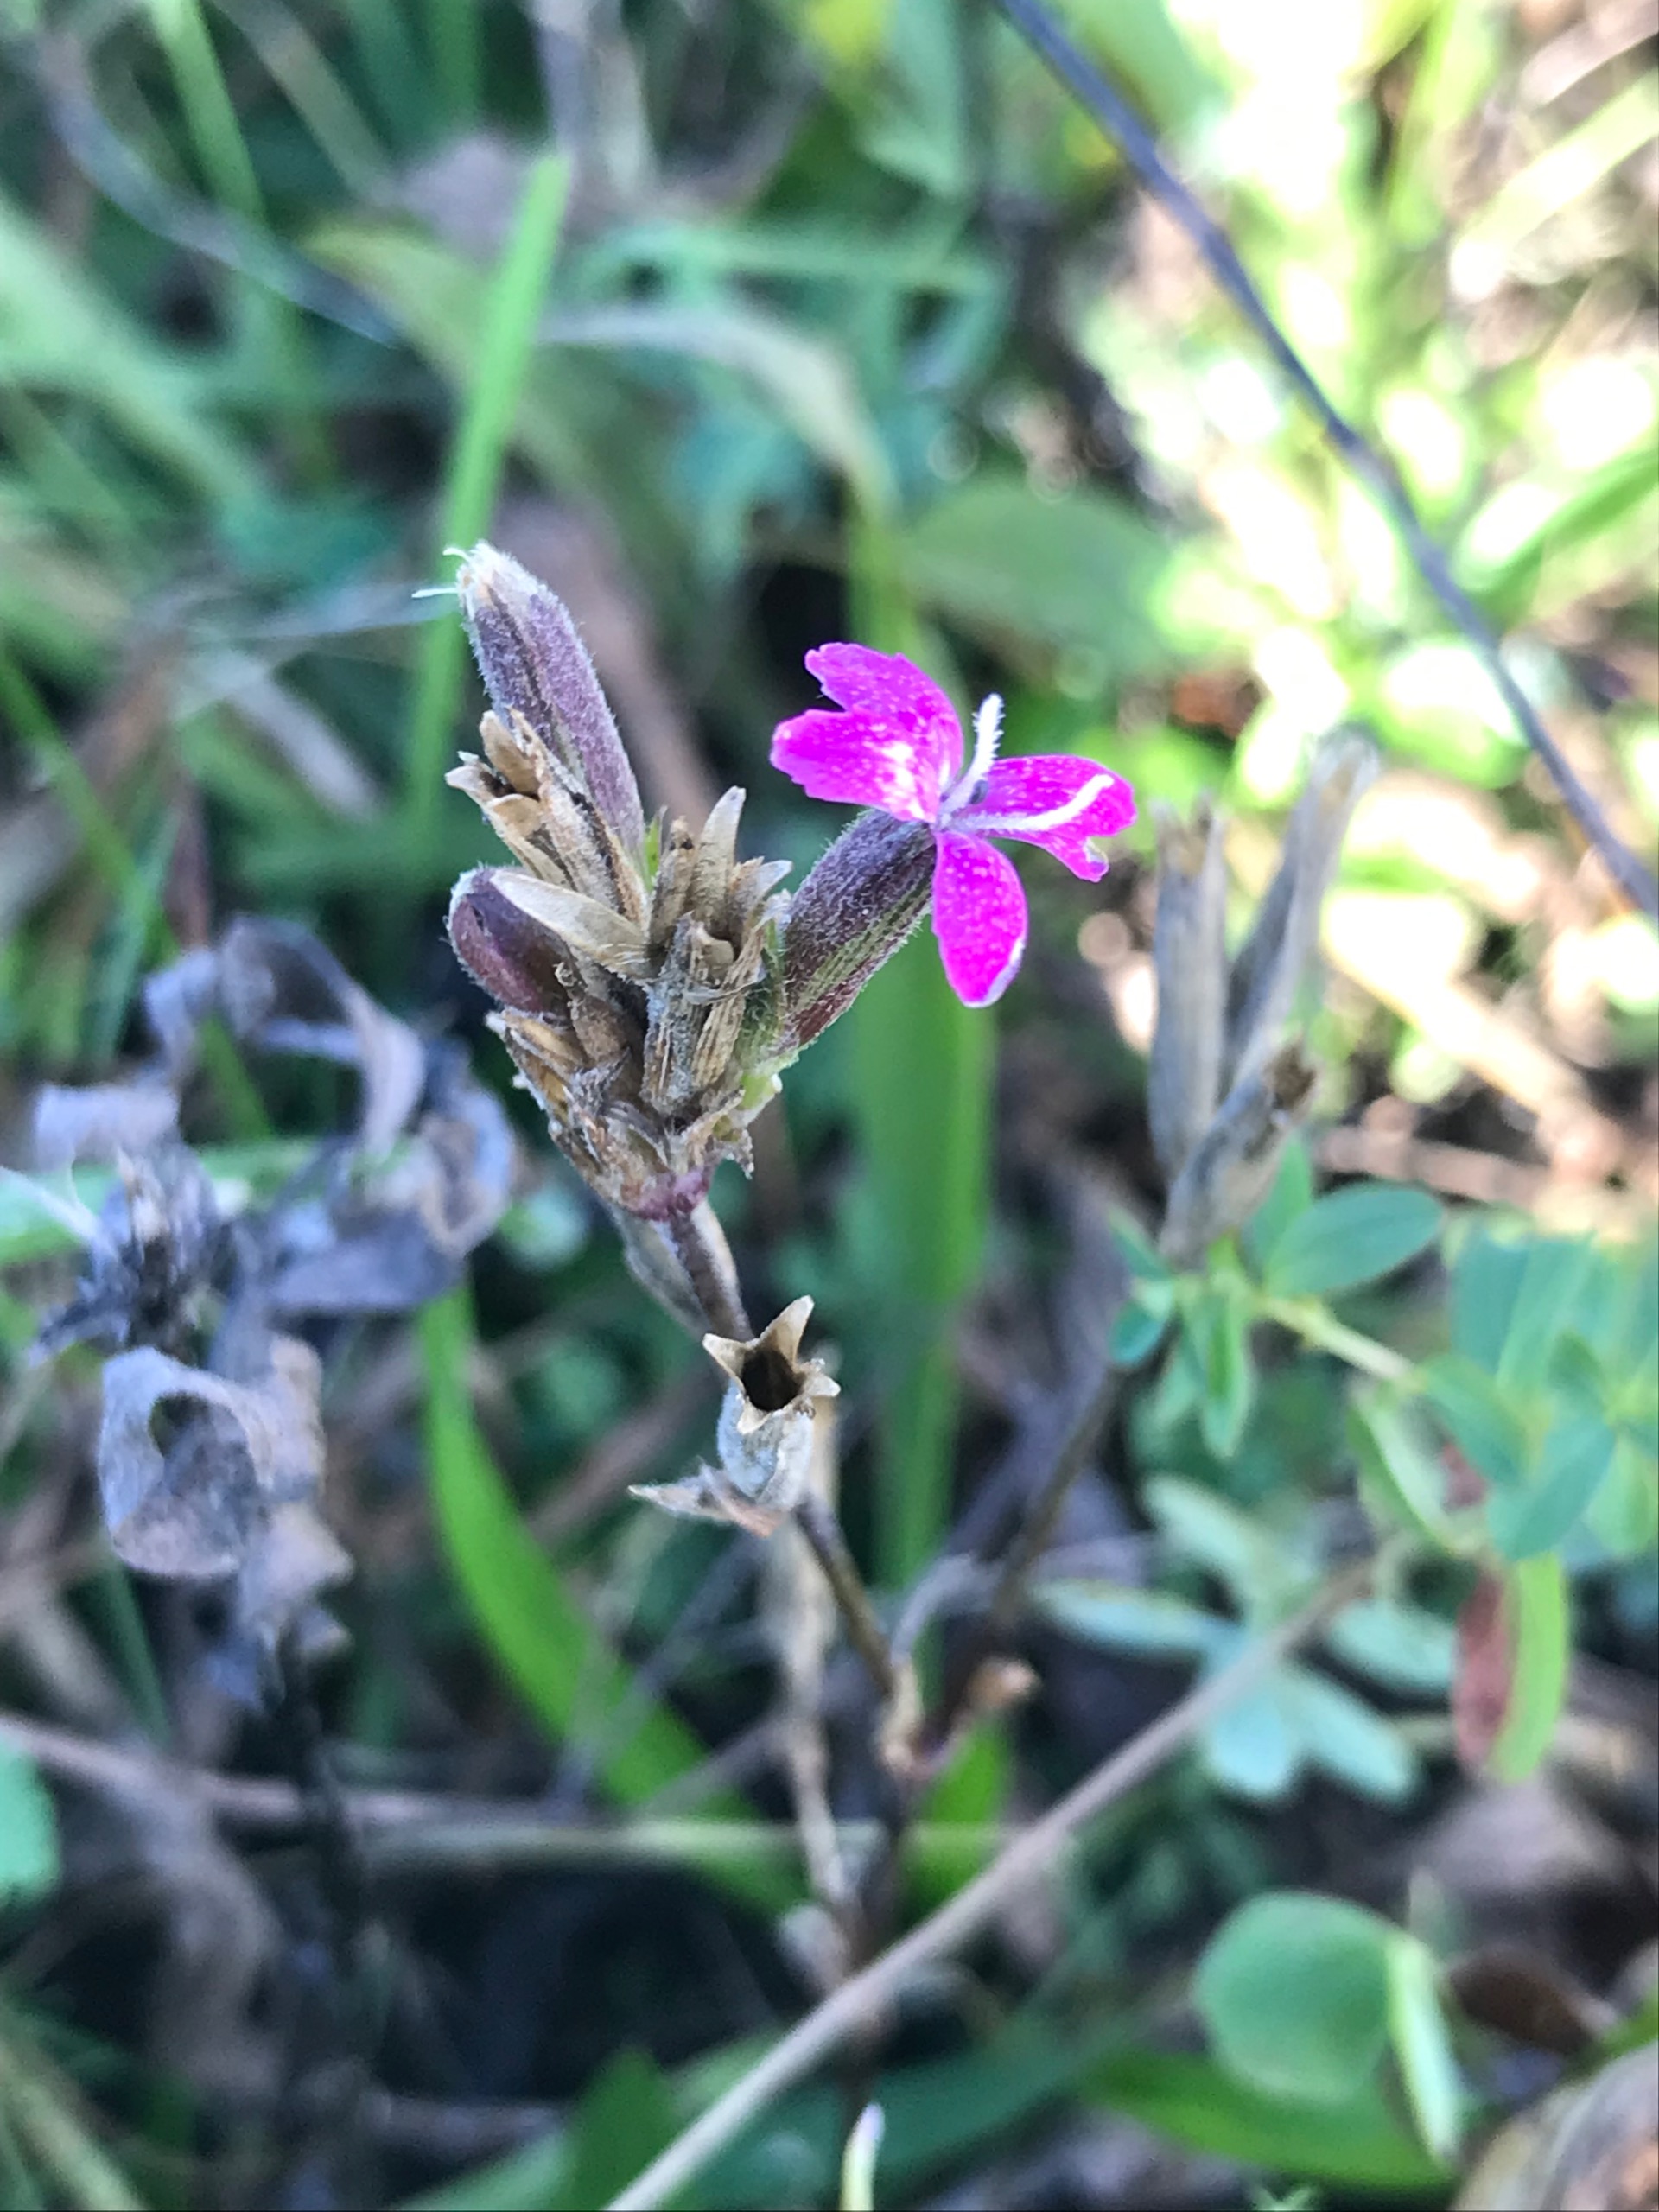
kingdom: Plantae
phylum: Tracheophyta
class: Magnoliopsida
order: Caryophyllales
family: Caryophyllaceae
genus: Dianthus
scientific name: Dianthus armeria
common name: Kost-nellike
